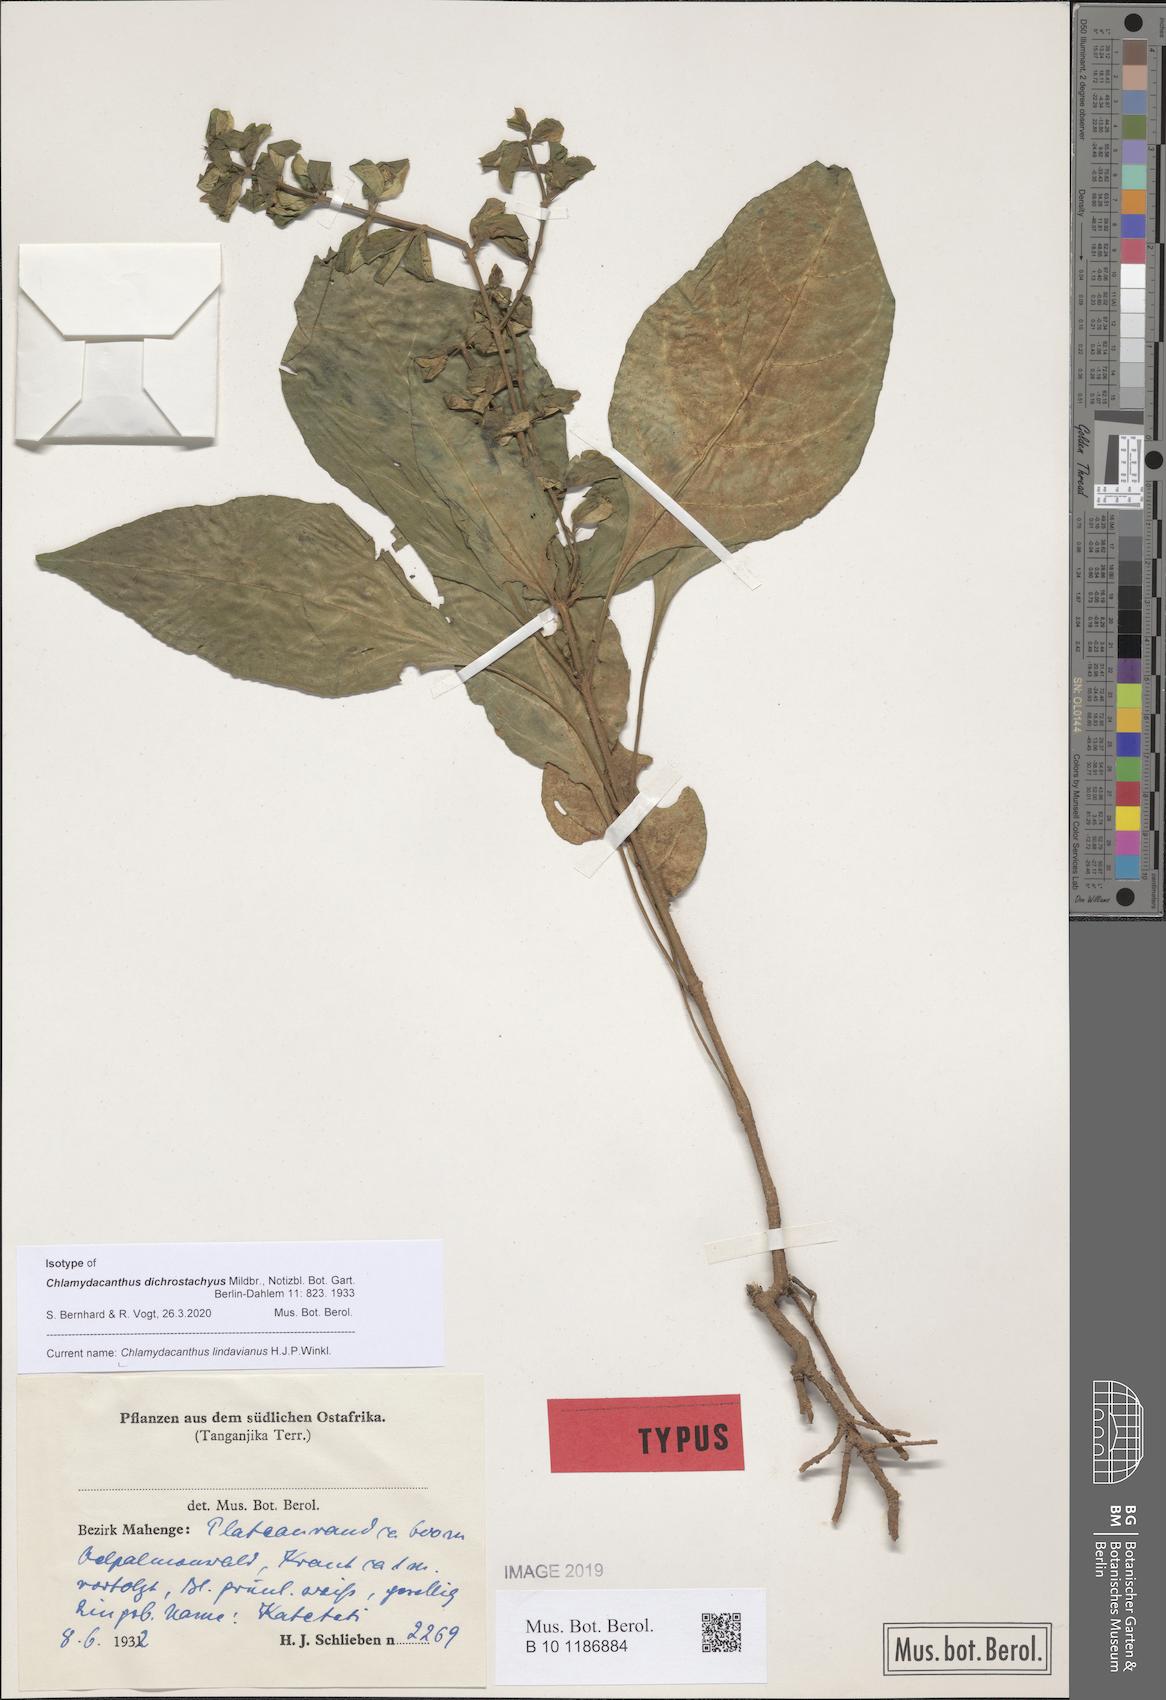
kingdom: Plantae
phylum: Tracheophyta
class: Magnoliopsida
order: Lamiales
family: Acanthaceae
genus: Chlamydacanthus
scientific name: Chlamydacanthus lindavianus
